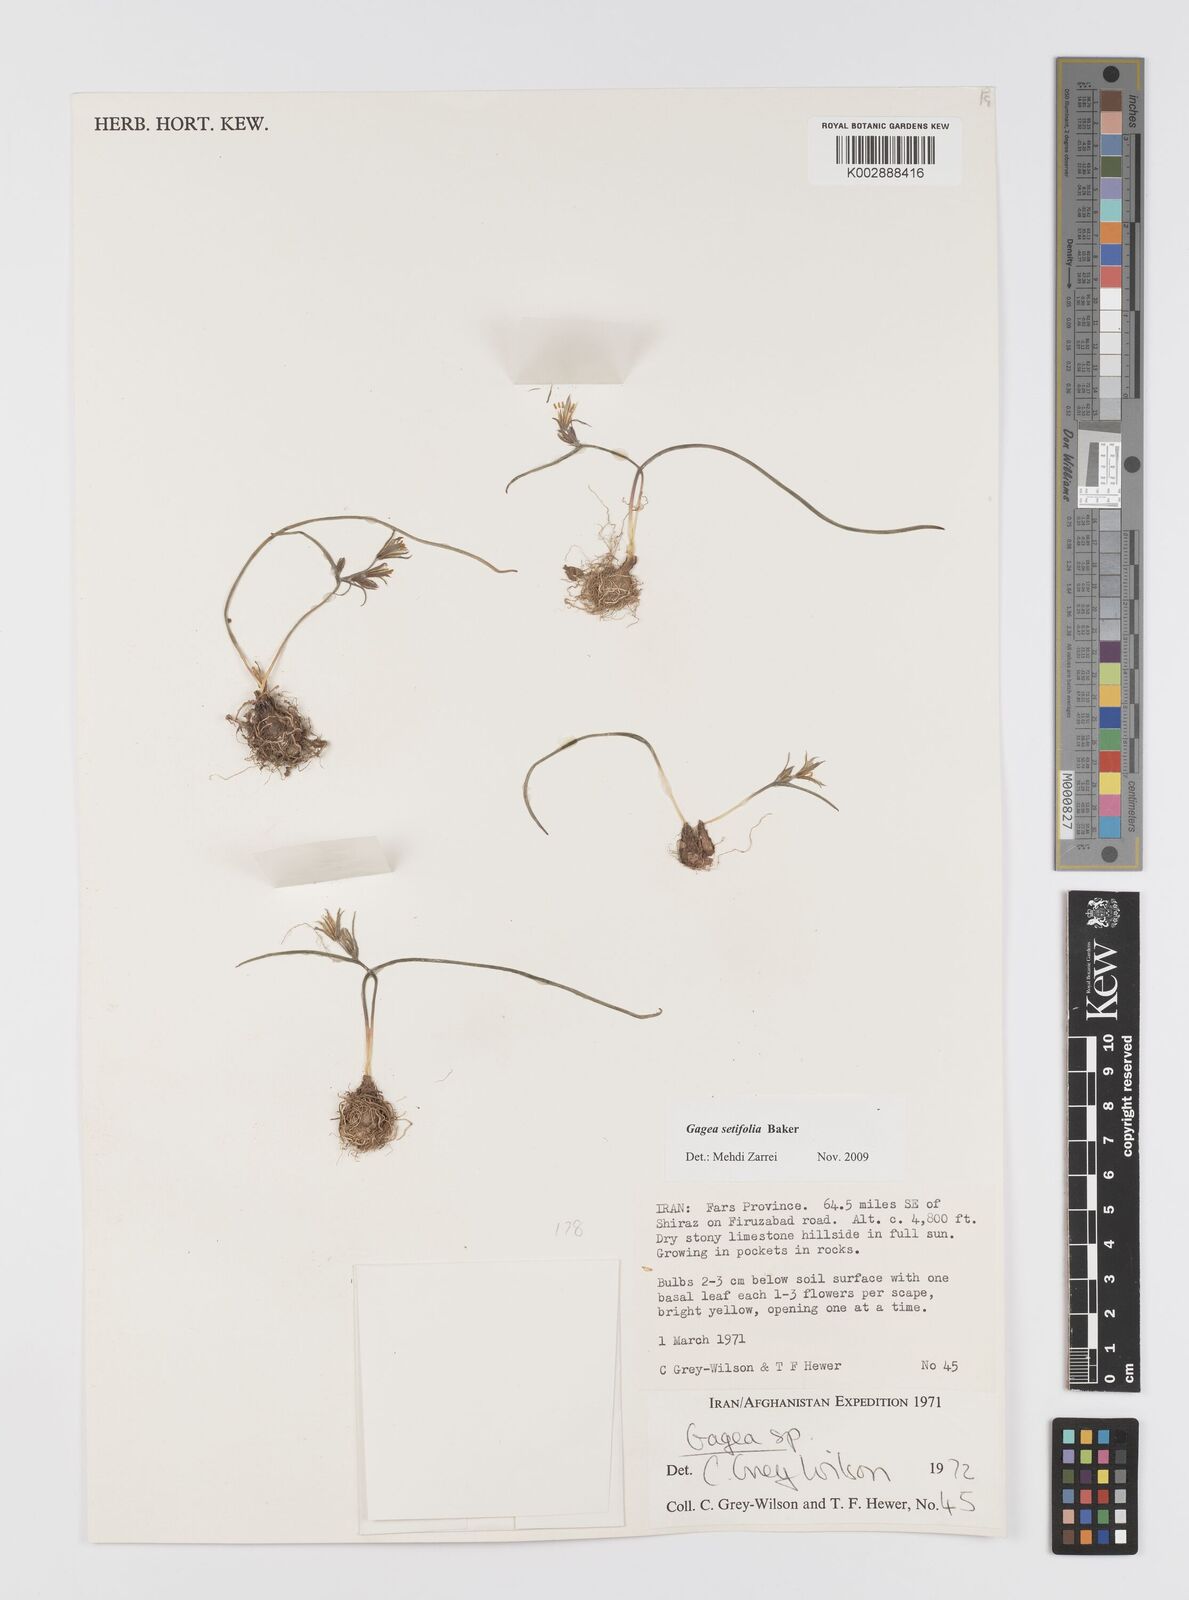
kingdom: Plantae
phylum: Tracheophyta
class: Liliopsida
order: Liliales
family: Liliaceae
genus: Gagea
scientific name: Gagea setifolia
